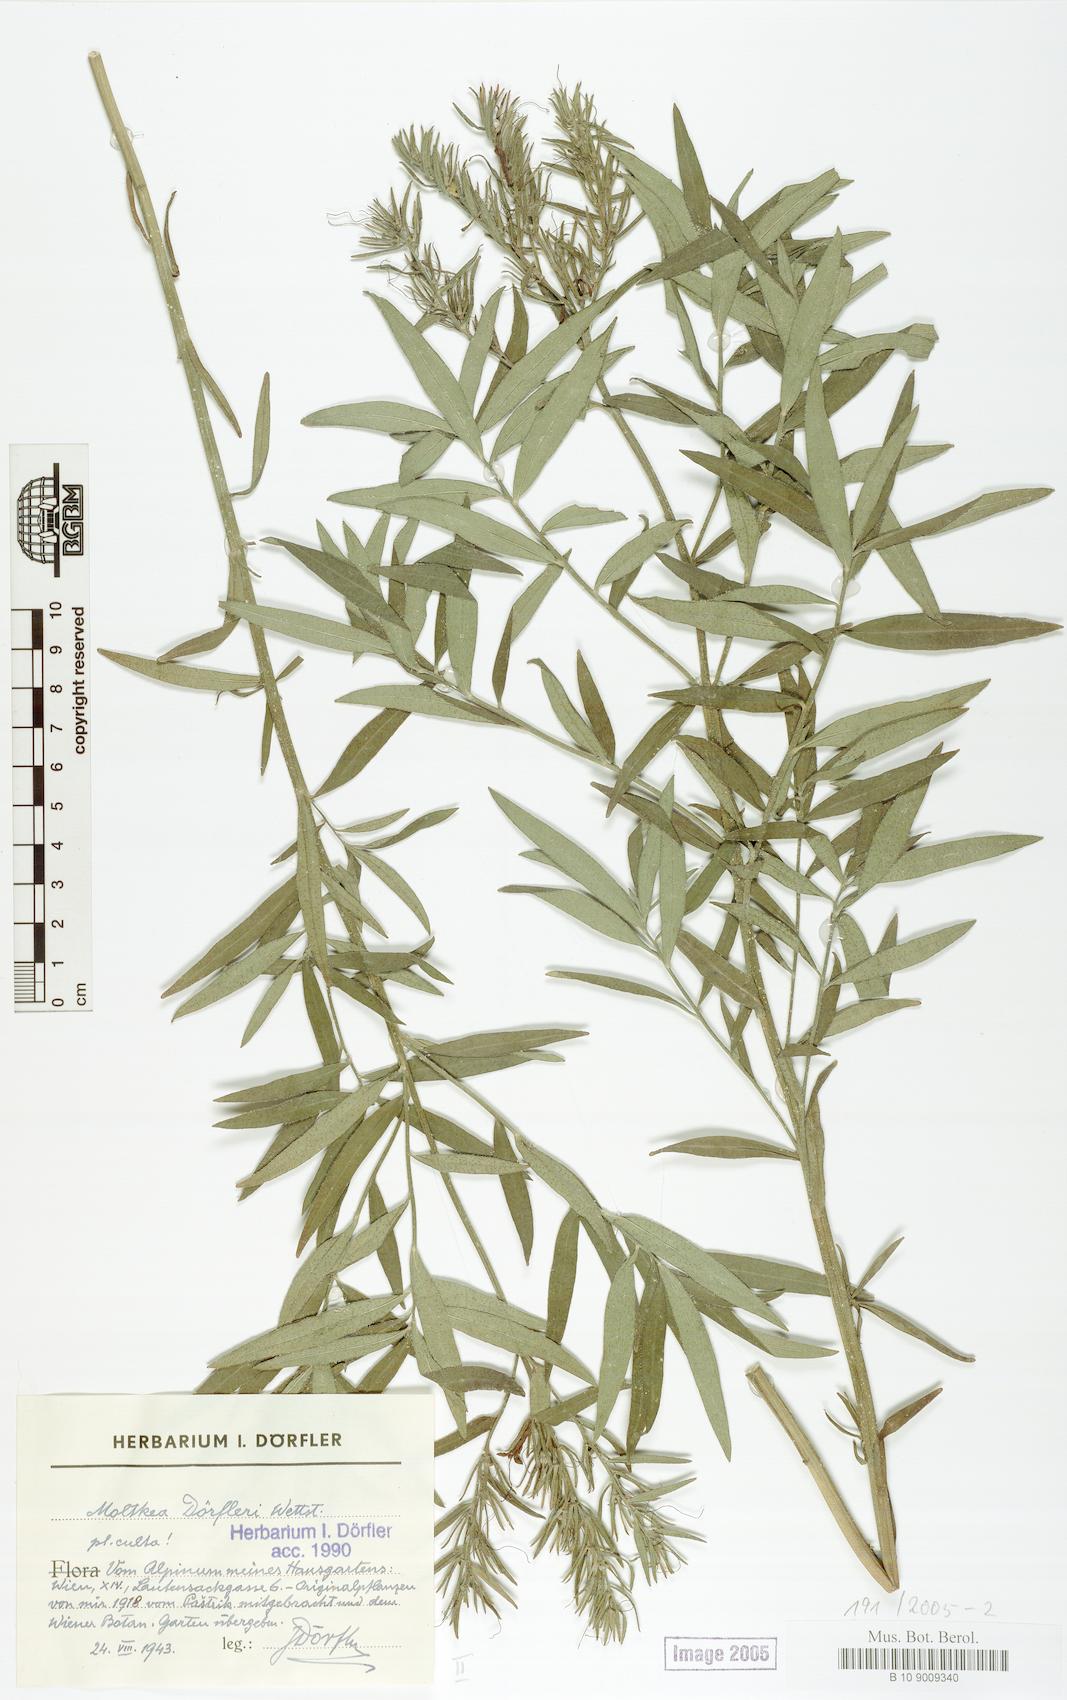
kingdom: Plantae
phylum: Tracheophyta
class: Magnoliopsida
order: Boraginales
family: Boraginaceae
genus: Paramoltkia
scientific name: Paramoltkia doerfleri
